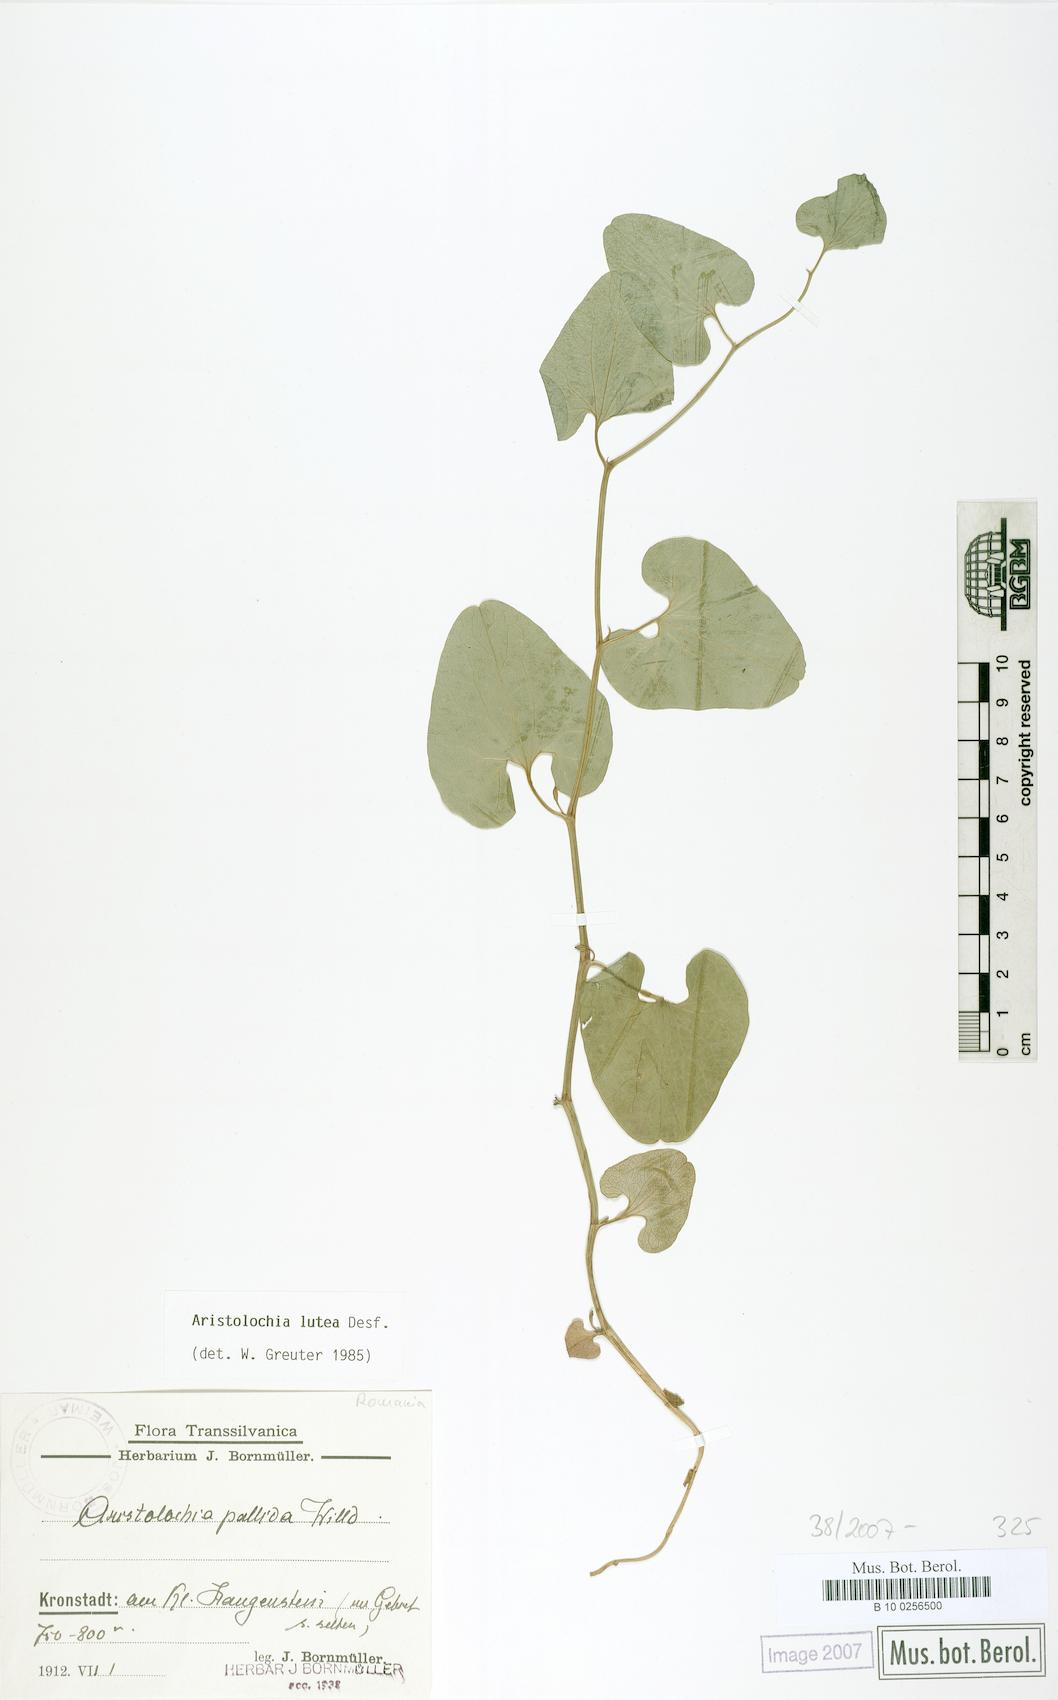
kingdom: Plantae
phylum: Tracheophyta
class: Magnoliopsida
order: Piperales
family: Aristolochiaceae
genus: Aristolochia
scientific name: Aristolochia lutea
